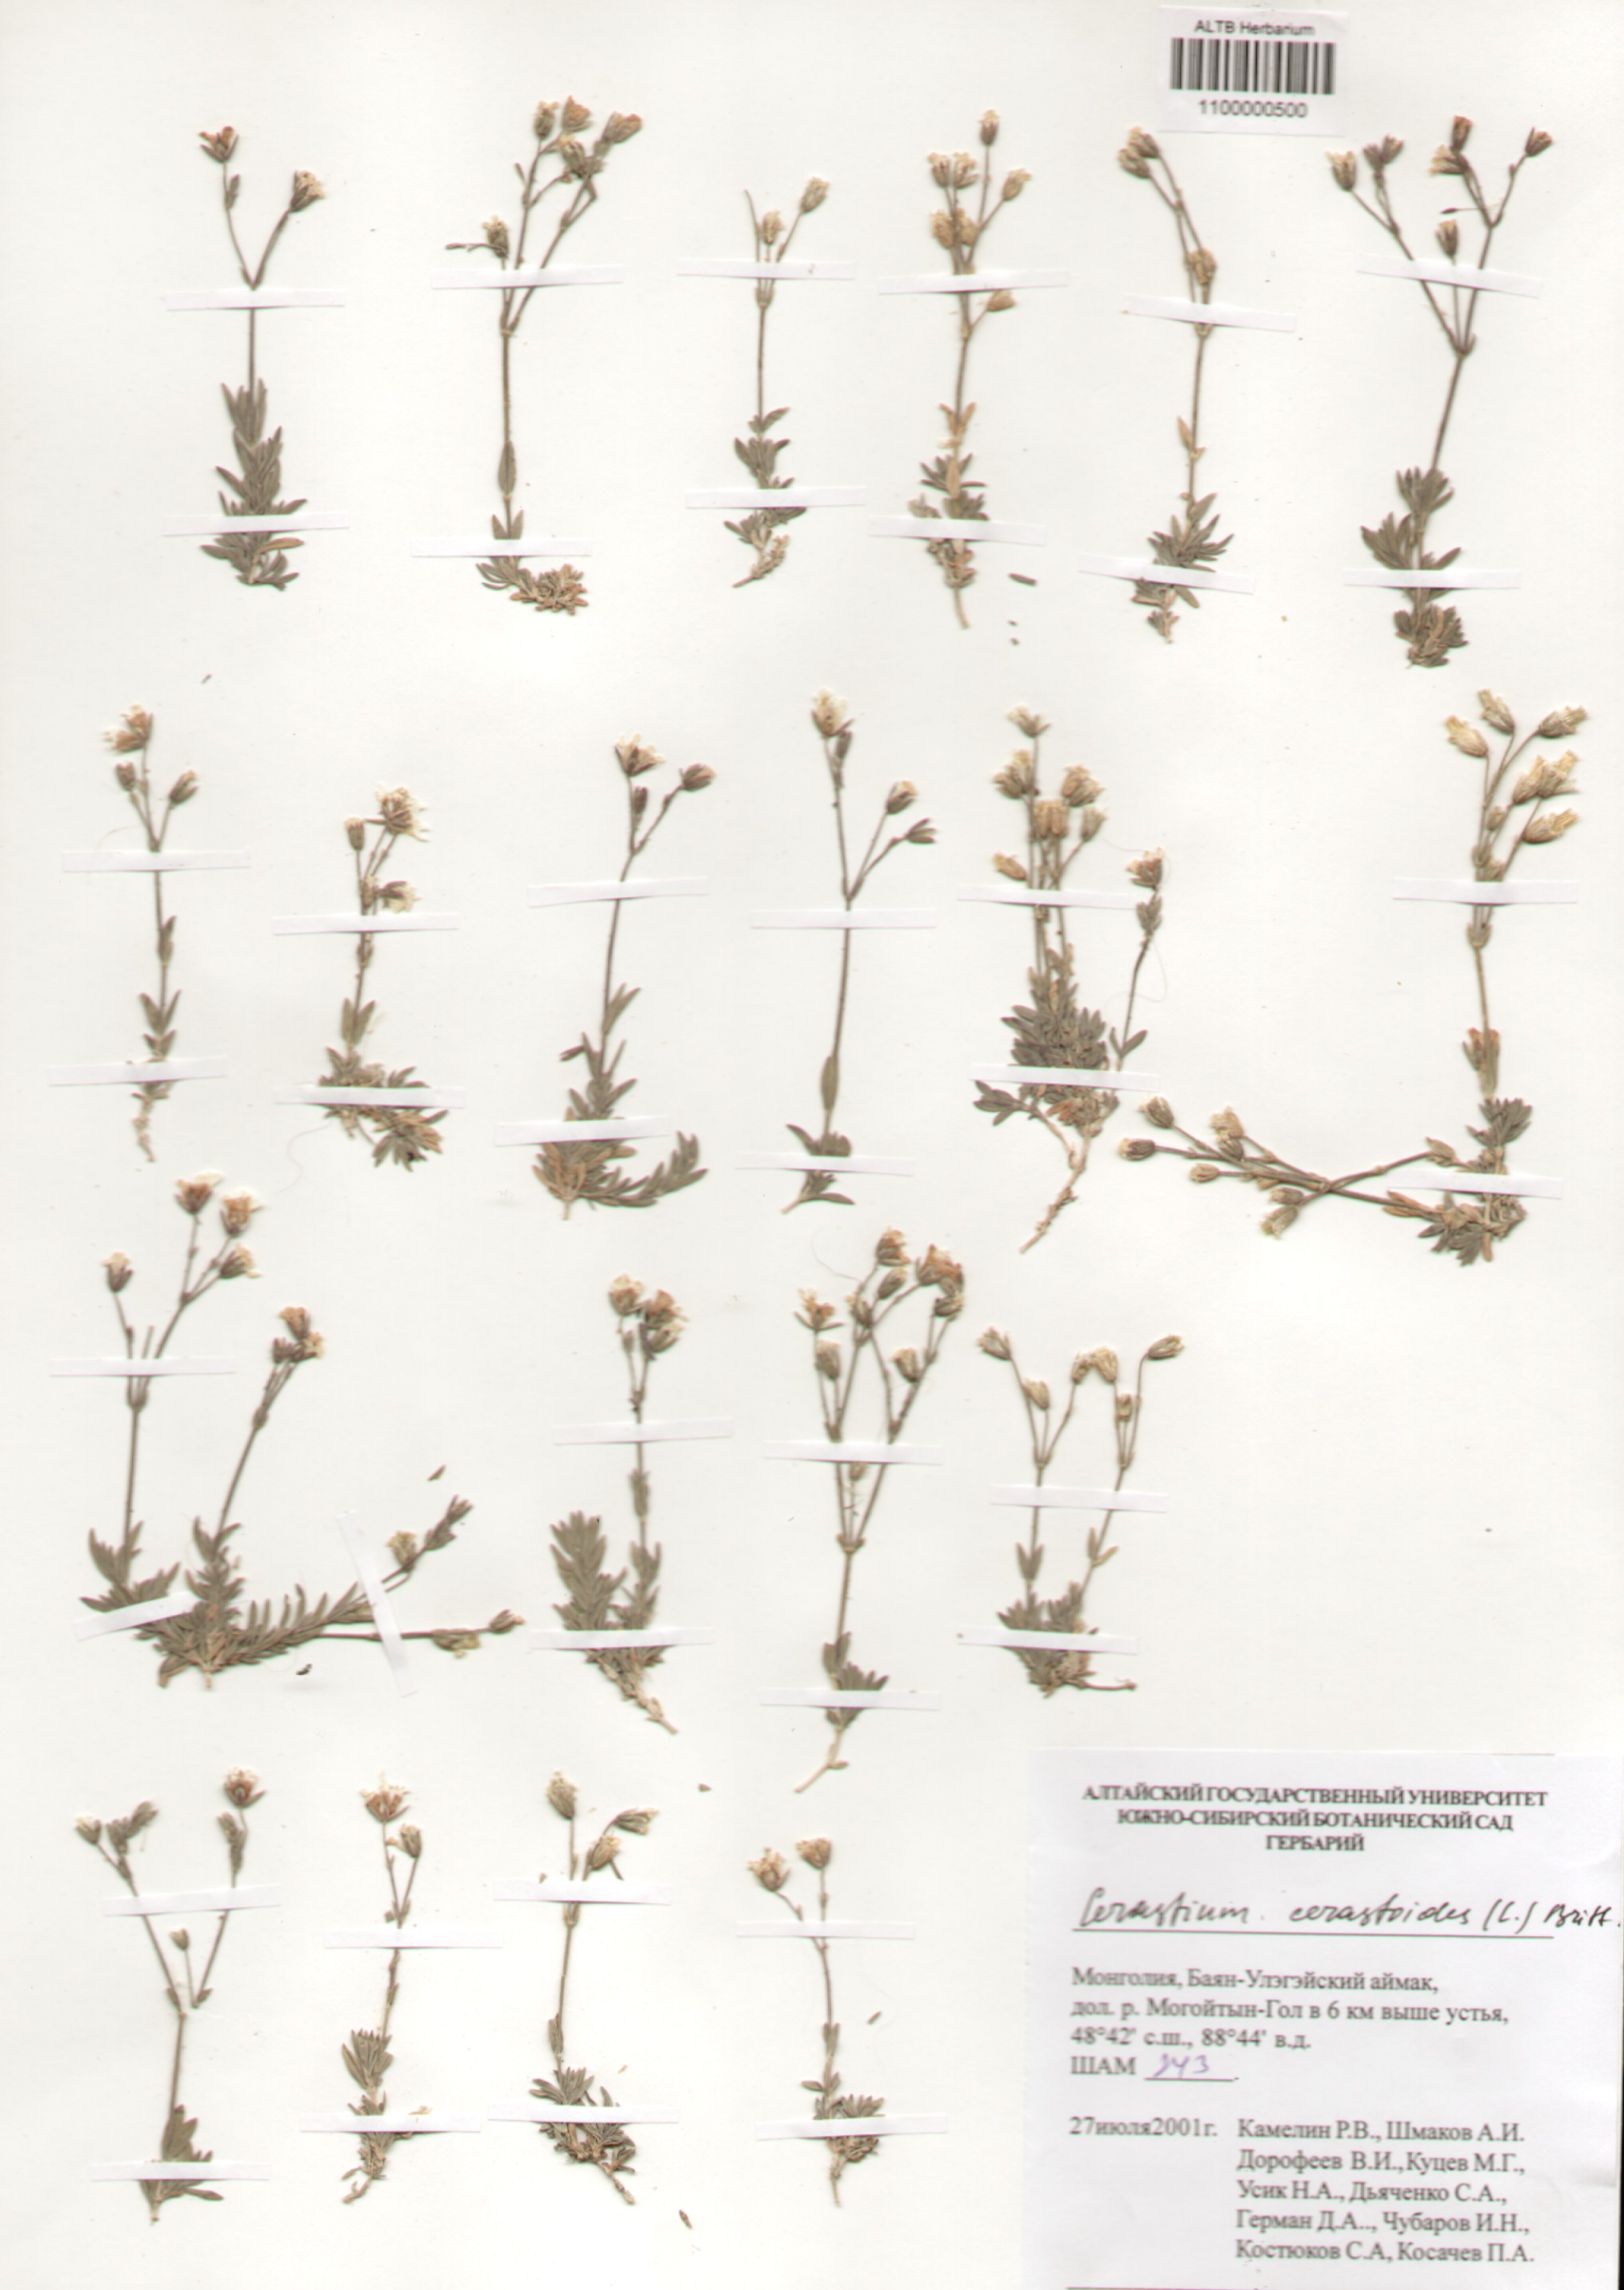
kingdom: Plantae
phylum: Tracheophyta
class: Magnoliopsida
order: Caryophyllales
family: Caryophyllaceae
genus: Dichodon
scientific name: Dichodon cerastoides
